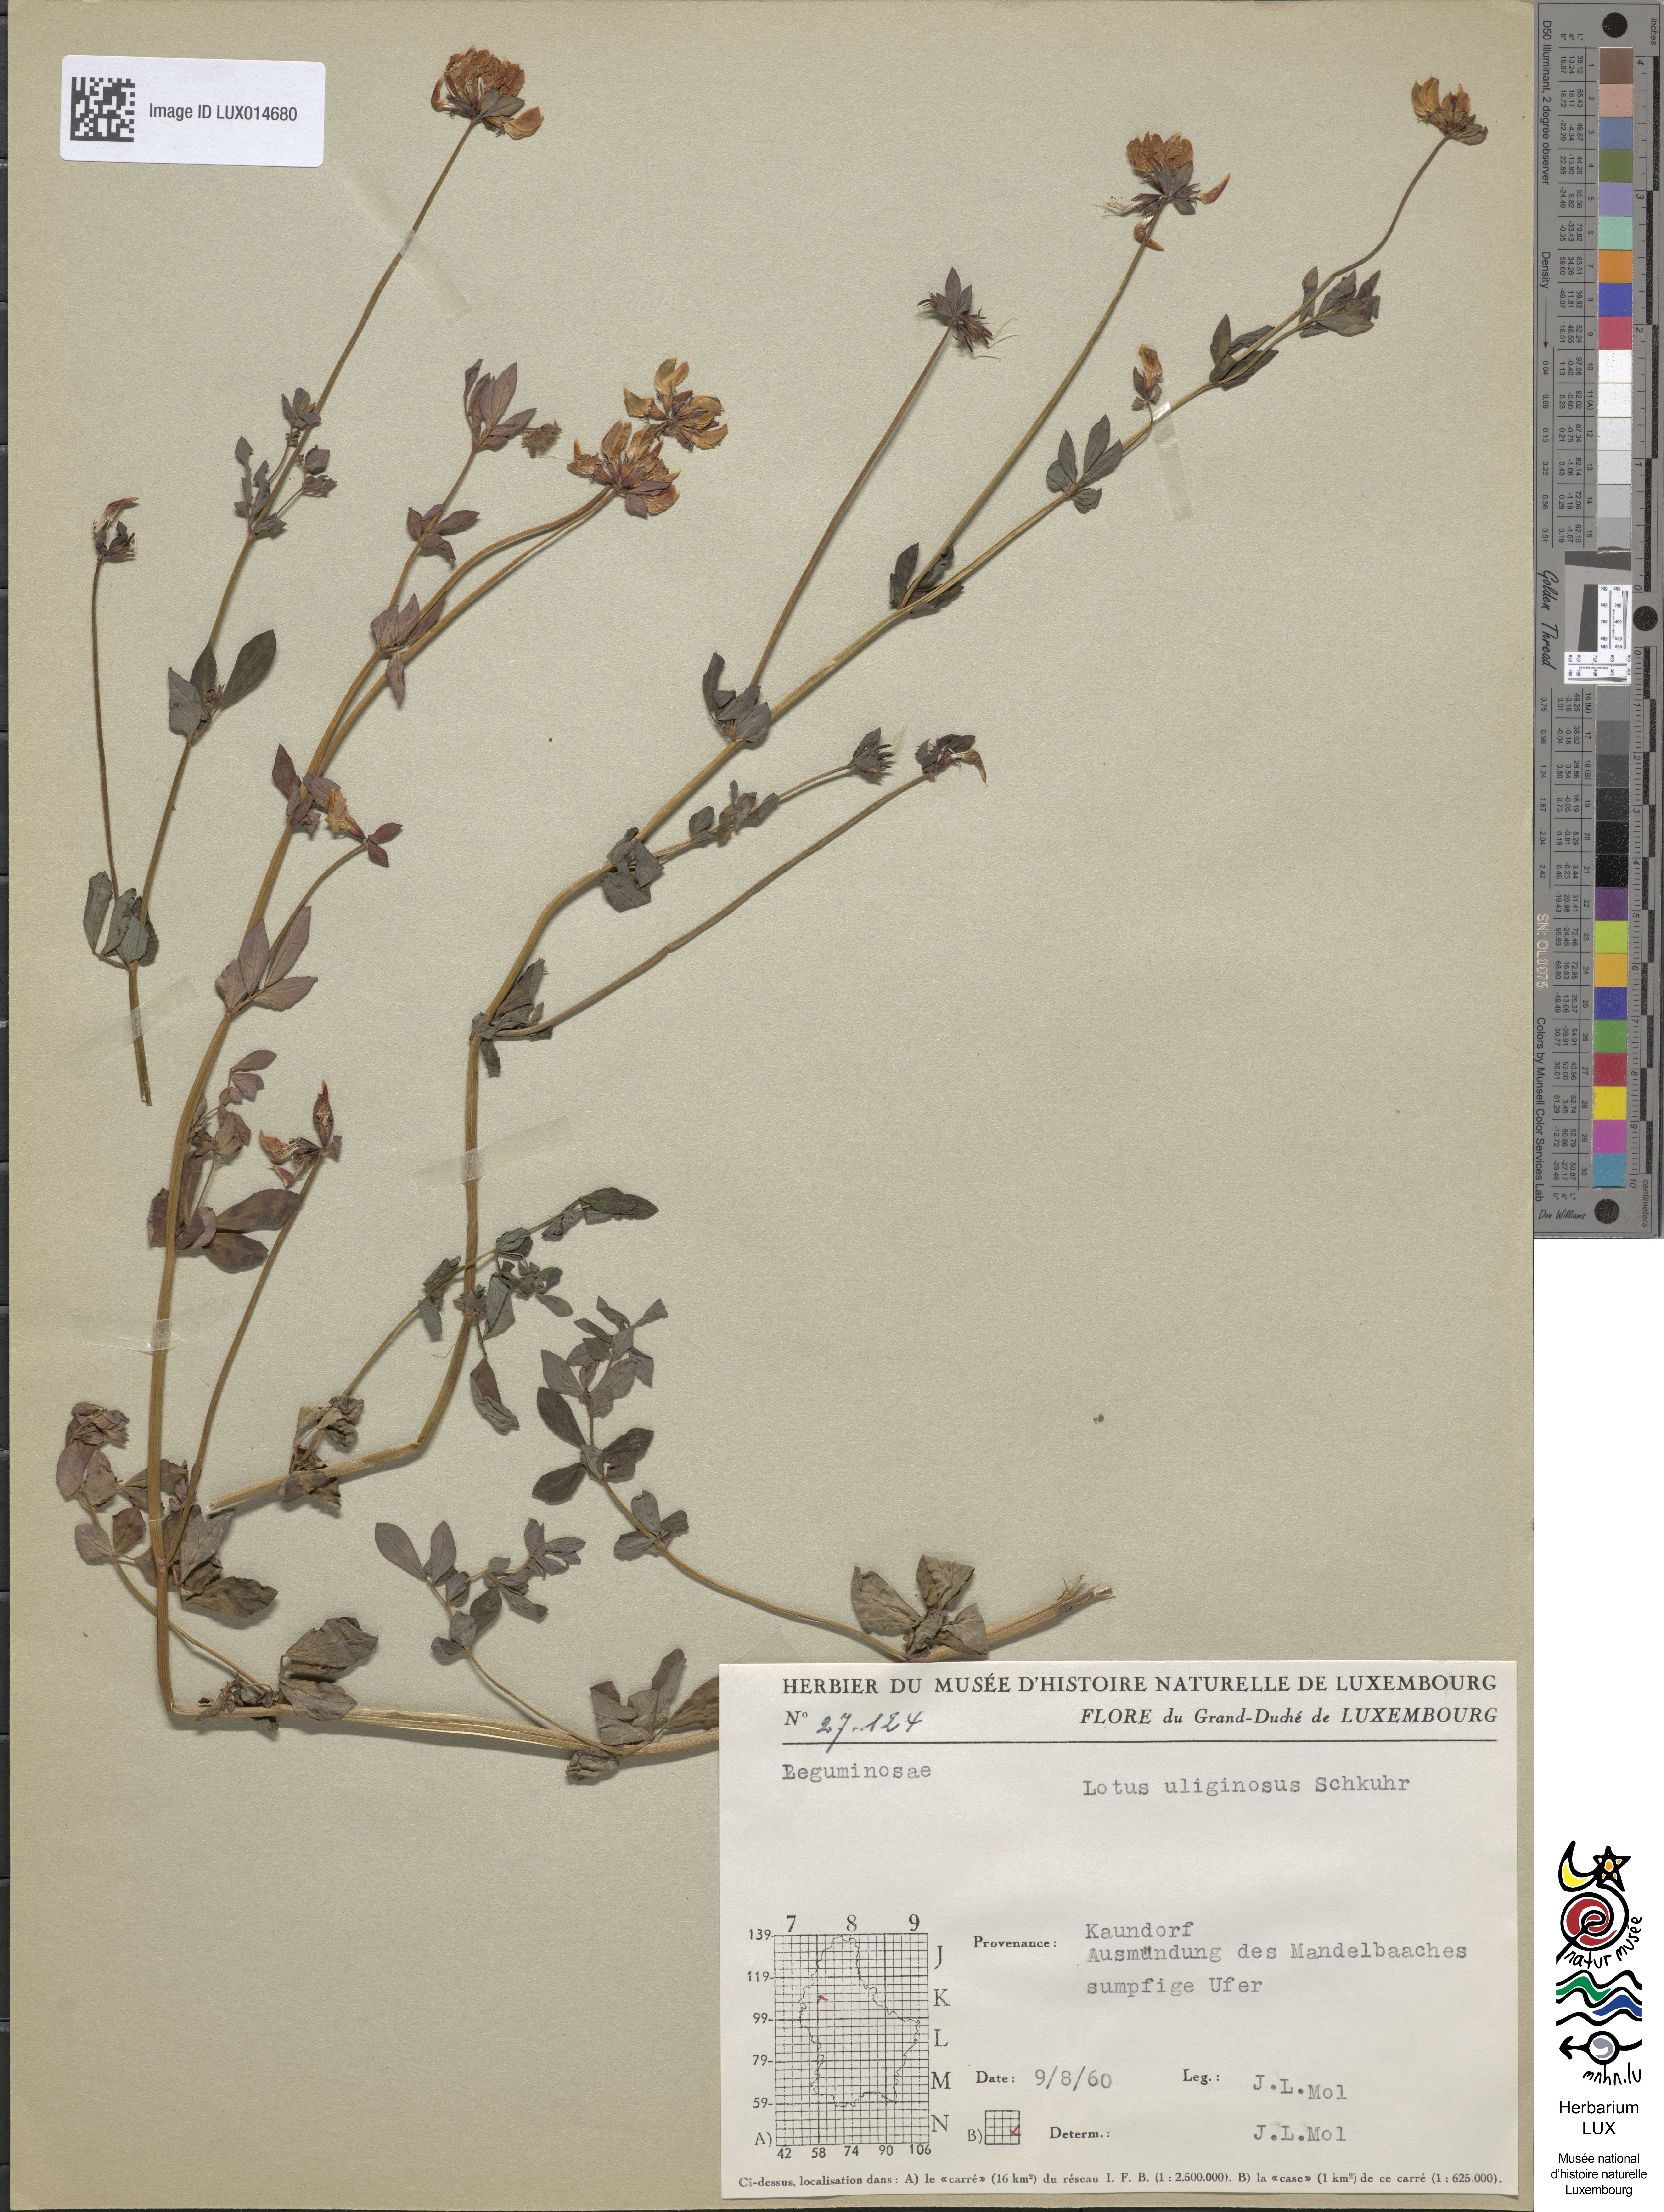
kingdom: Plantae
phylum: Tracheophyta
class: Magnoliopsida
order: Fabales
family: Fabaceae
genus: Lotus
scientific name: Lotus pedunculatus
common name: Greater birdsfoot-trefoil
